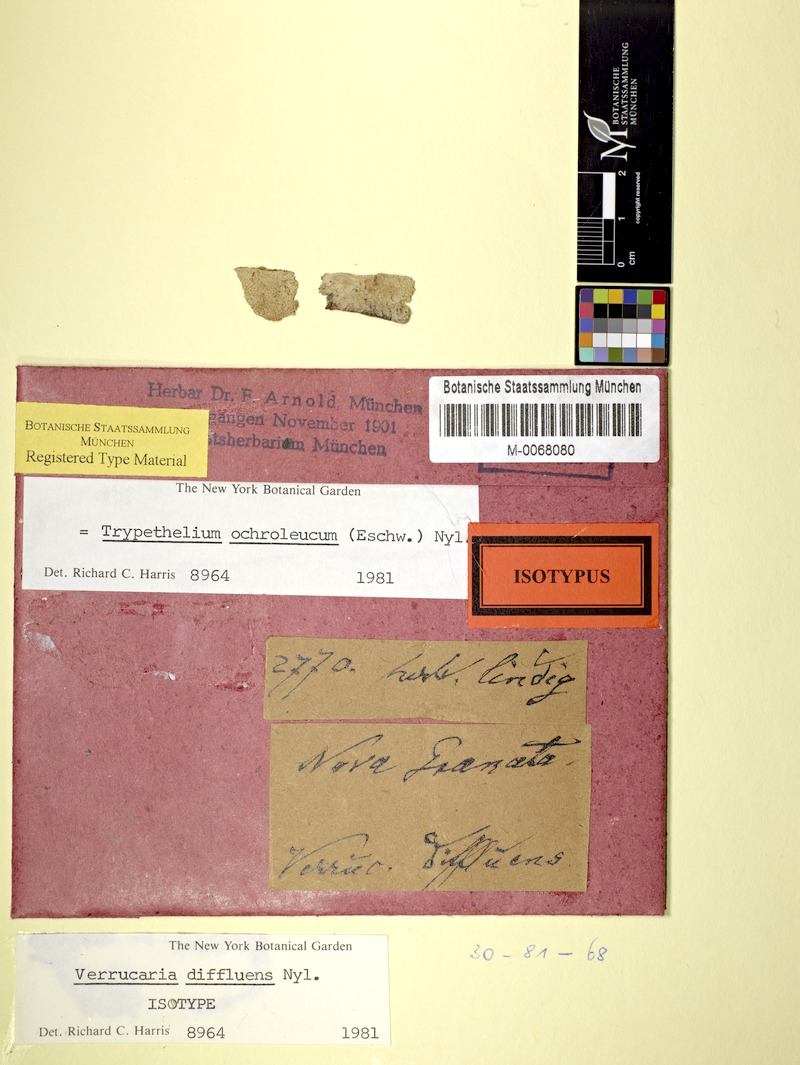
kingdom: Fungi
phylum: Ascomycota
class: Dothideomycetes
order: Trypetheliales
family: Trypetheliaceae
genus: Trypethelium
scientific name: Trypethelium ochroleucum
